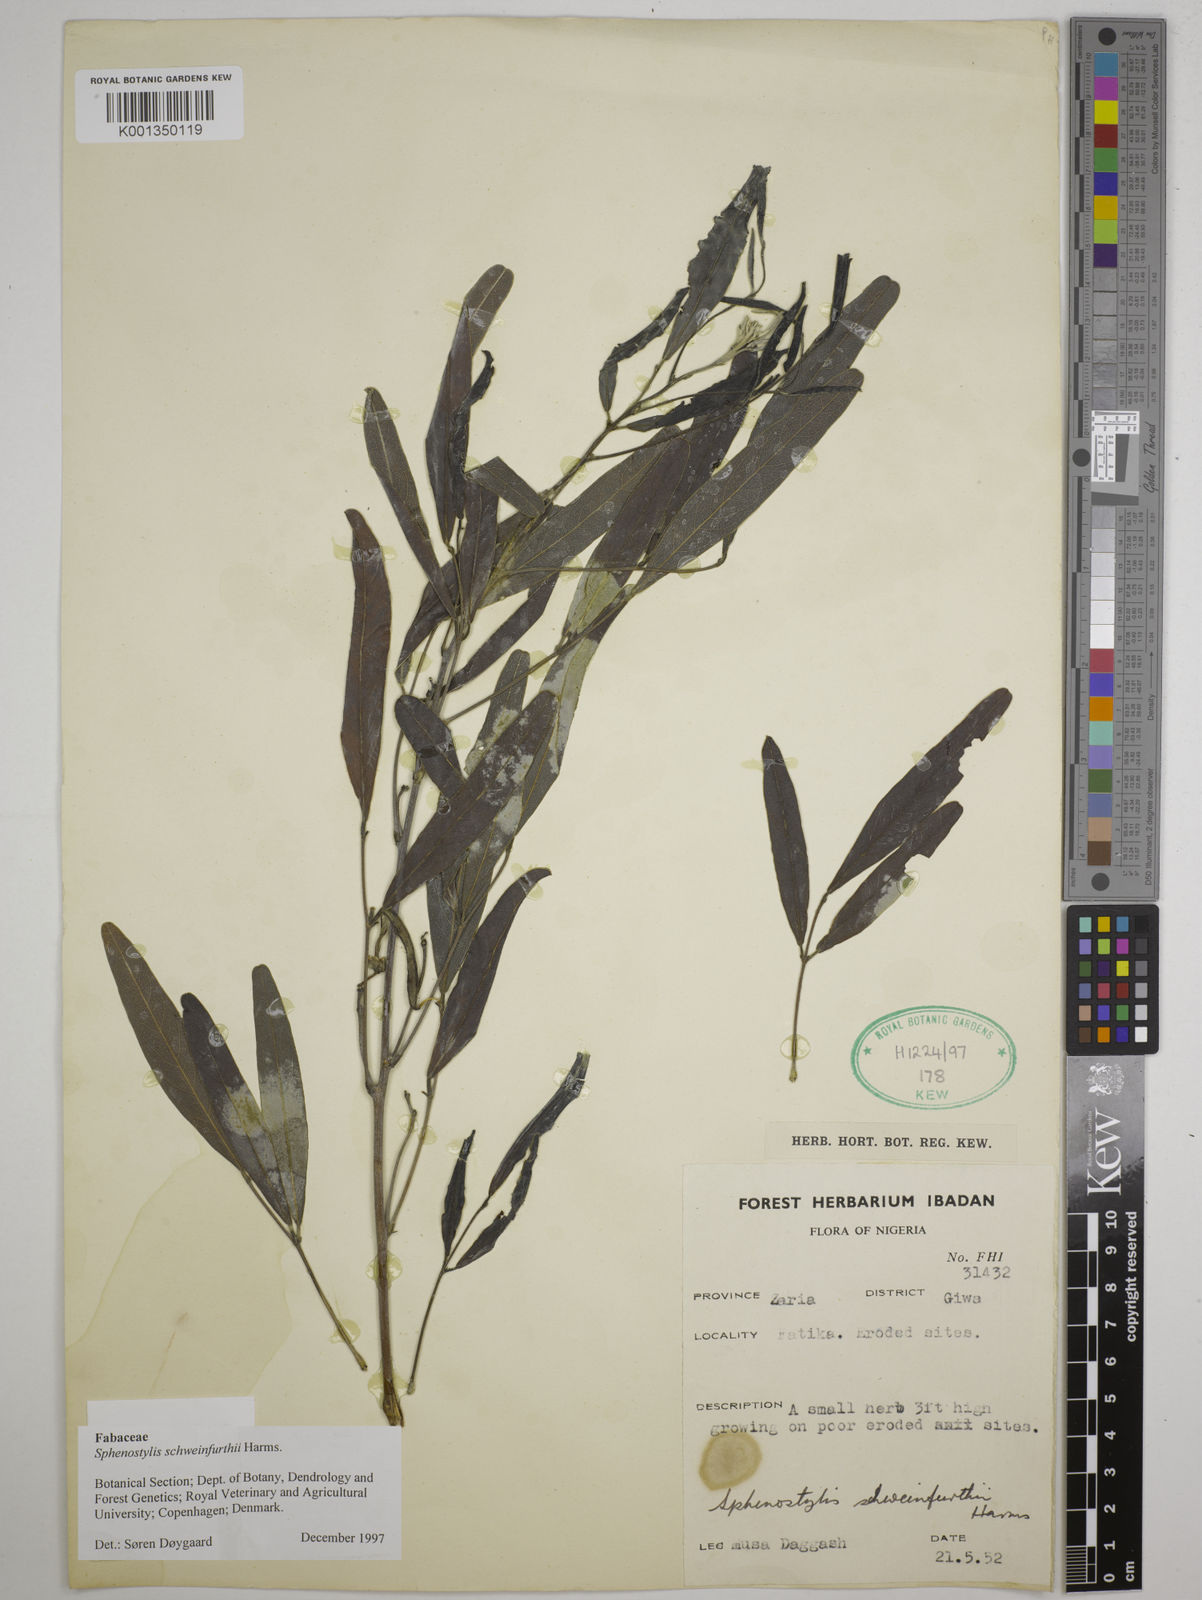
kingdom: Plantae
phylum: Tracheophyta
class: Magnoliopsida
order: Fabales
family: Fabaceae
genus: Sphenostylis
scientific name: Sphenostylis schweinfurthii
